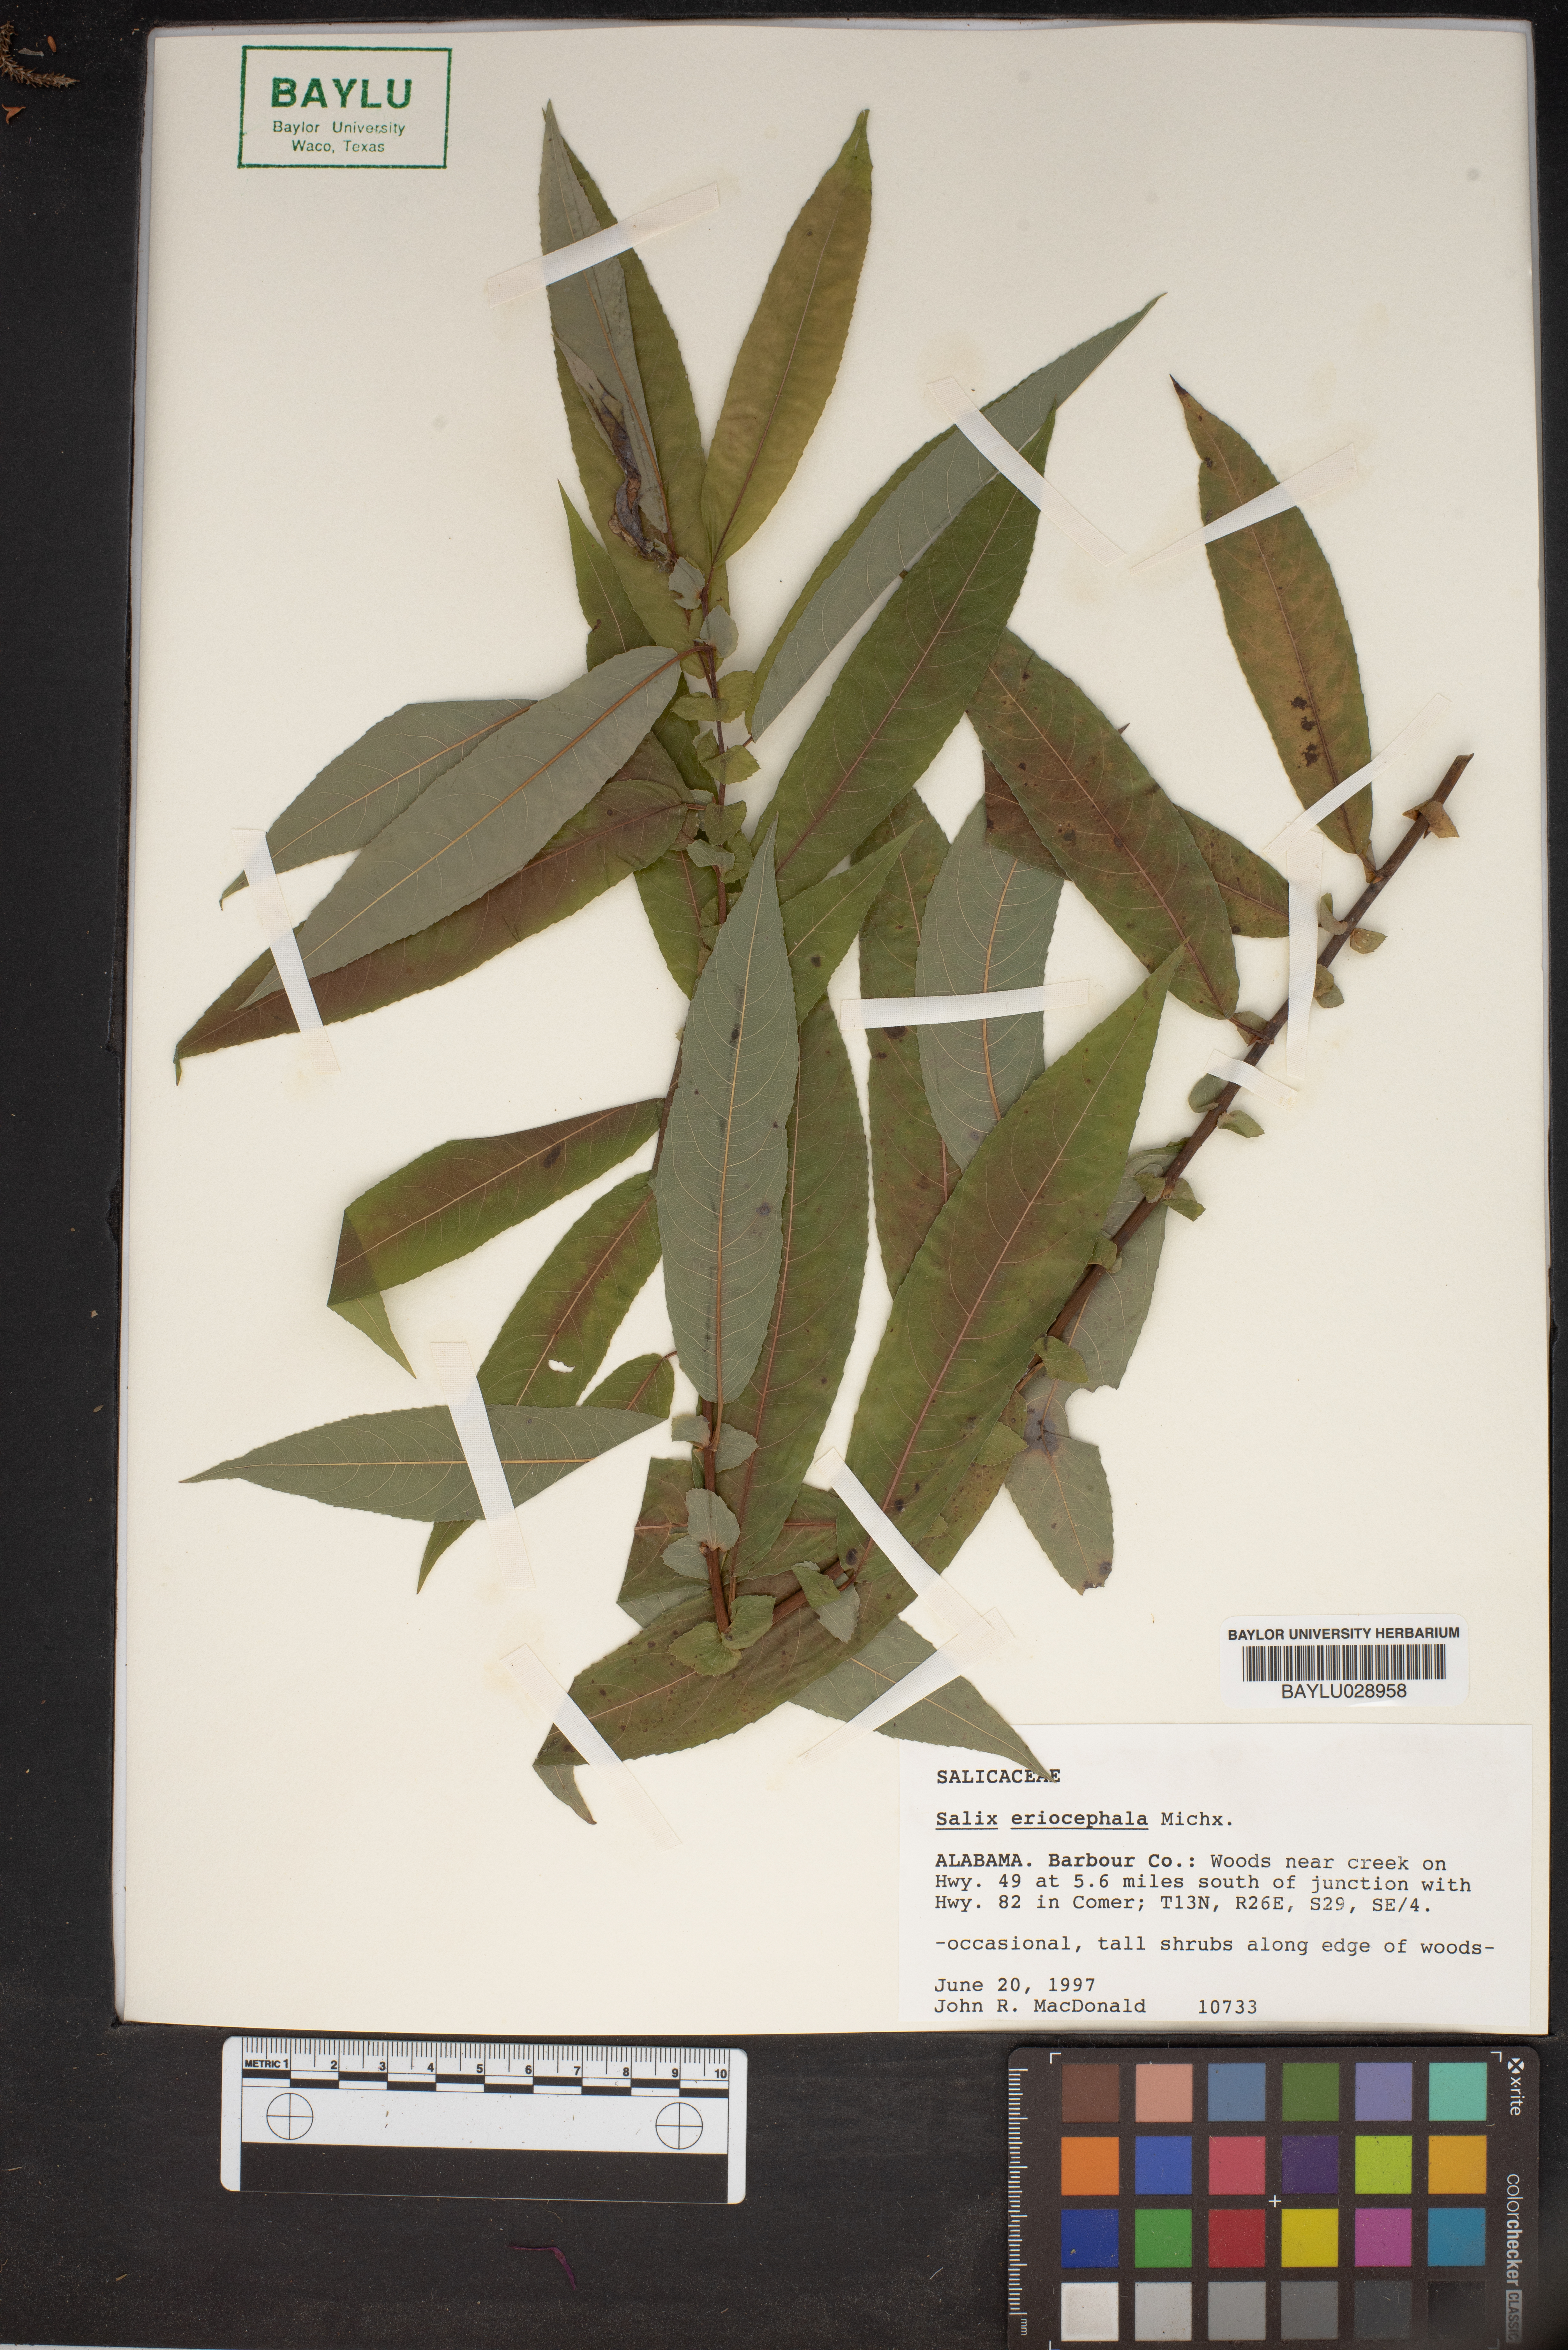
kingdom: Plantae
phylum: Tracheophyta
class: Magnoliopsida
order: Malpighiales
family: Salicaceae
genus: Salix
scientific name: Salix eriocephala
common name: Heart-leaved willow
